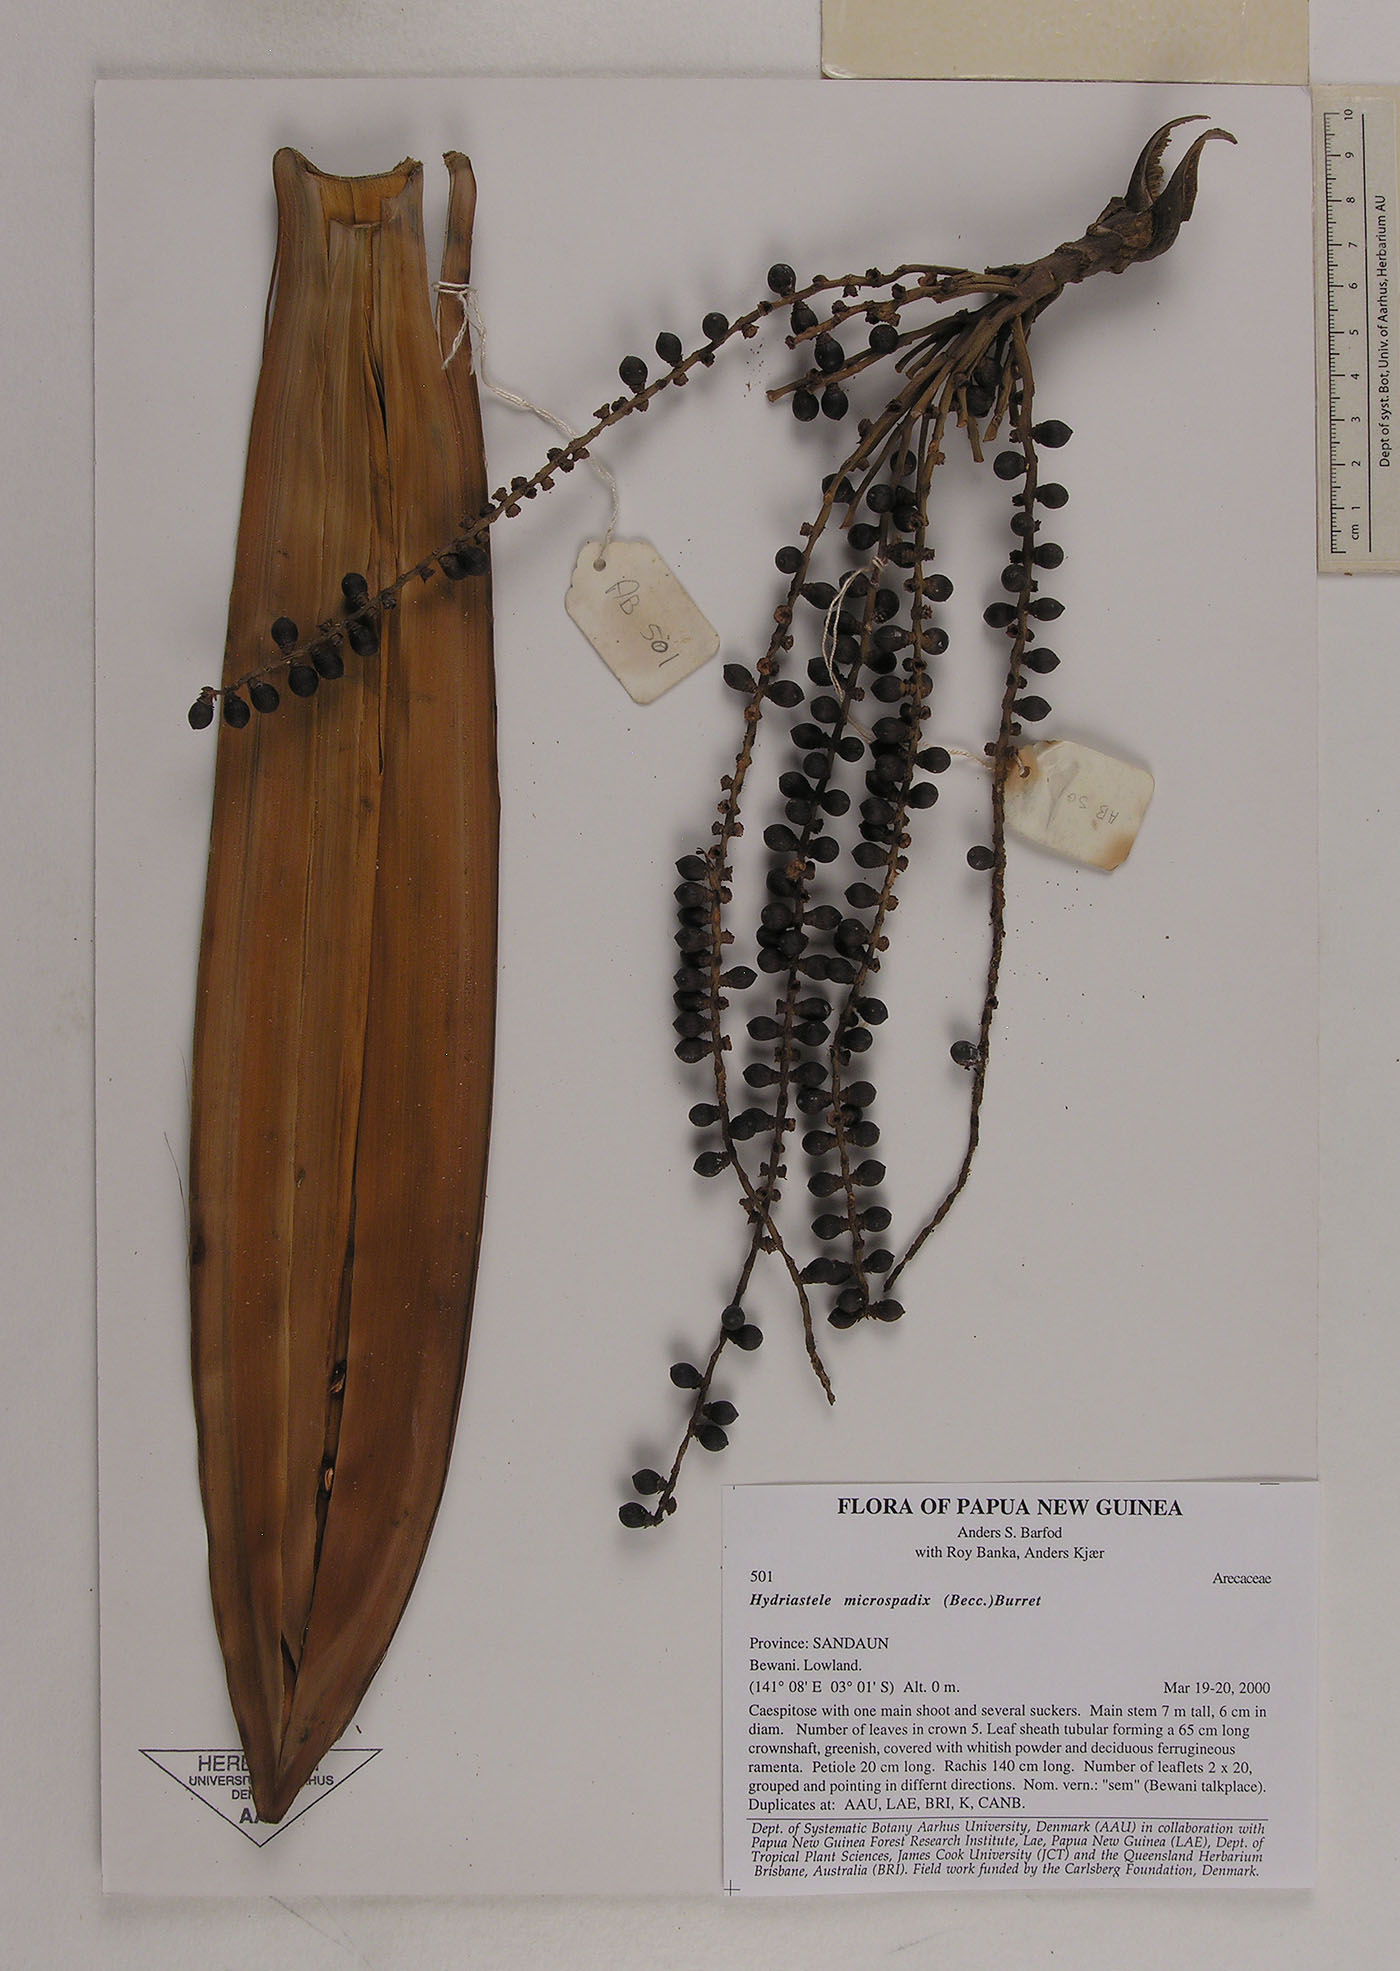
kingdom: Plantae
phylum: Tracheophyta
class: Liliopsida
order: Arecales
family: Arecaceae
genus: Hydriastele
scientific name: Hydriastele wendlandiana
